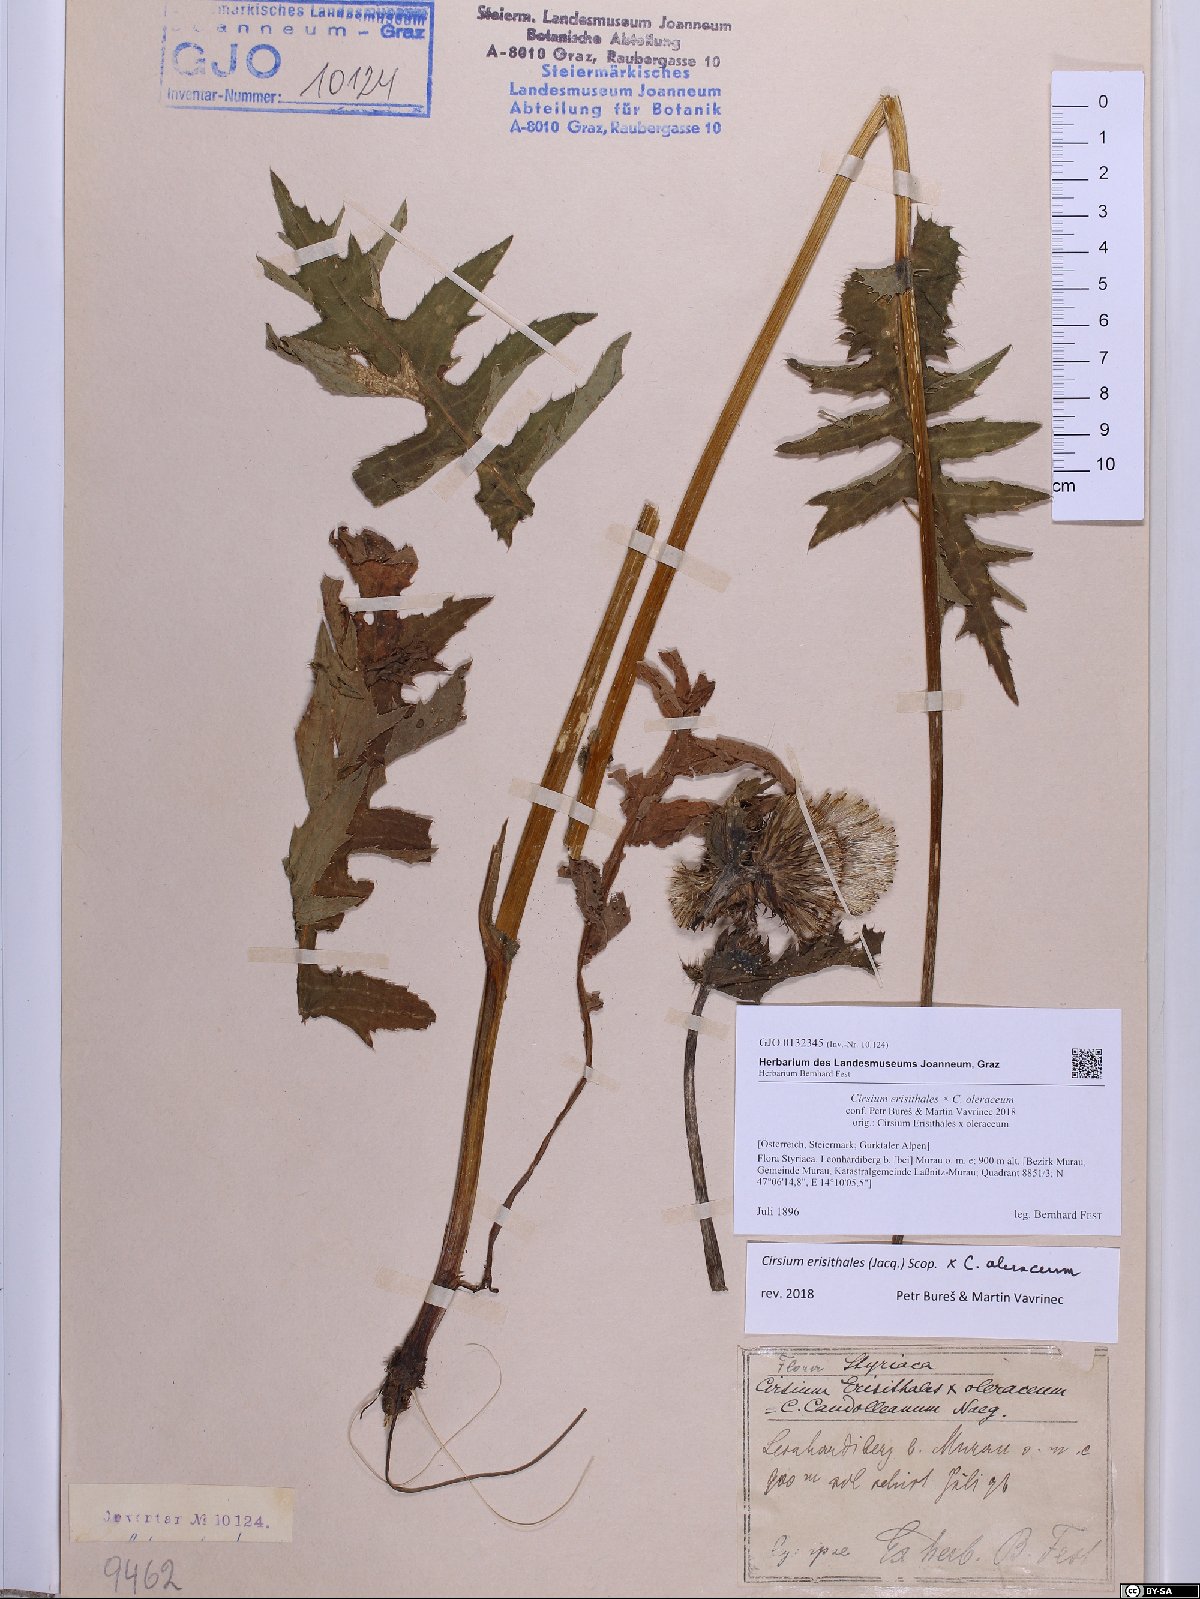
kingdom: Plantae
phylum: Tracheophyta
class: Magnoliopsida
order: Asterales
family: Asteraceae
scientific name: Asteraceae
